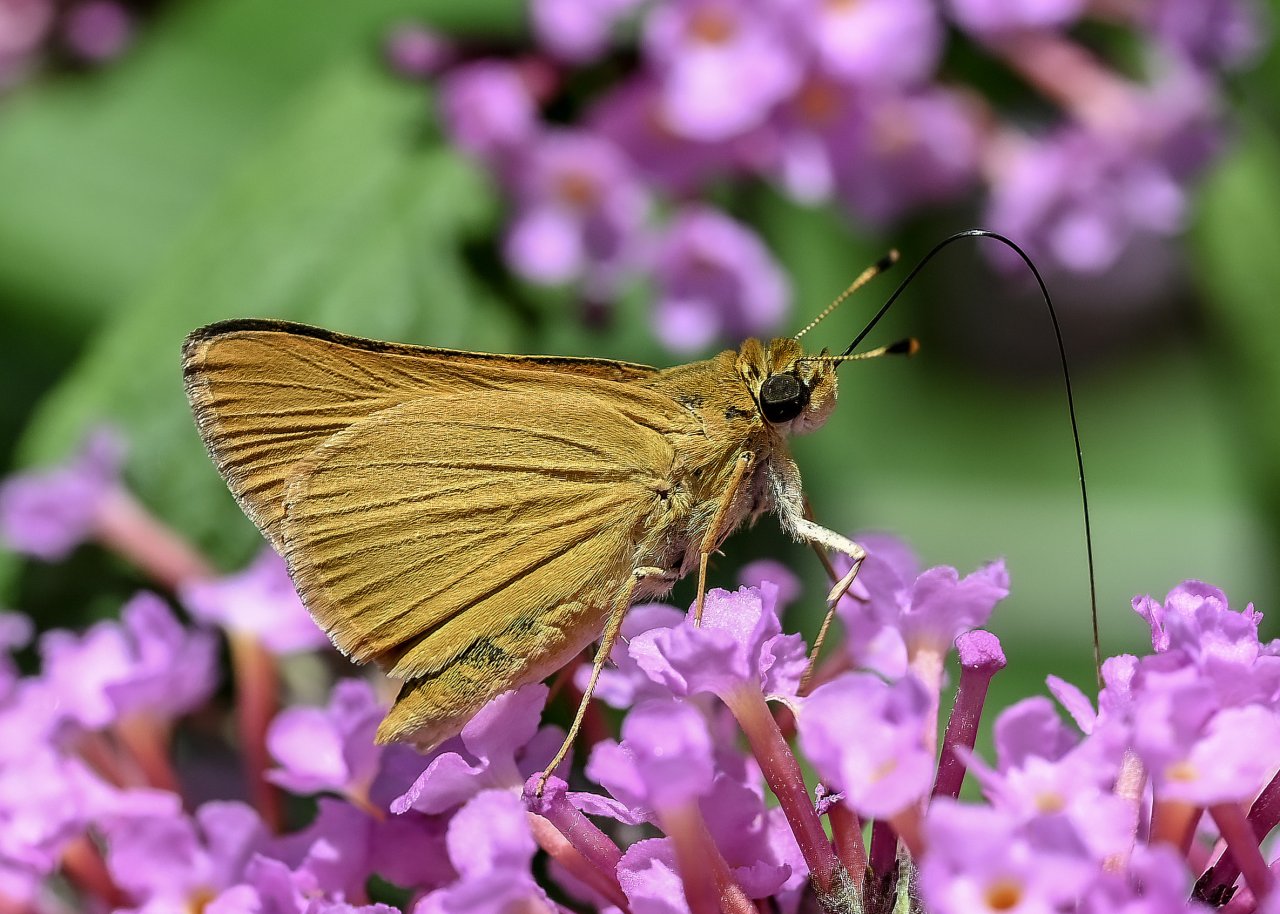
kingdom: Animalia
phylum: Arthropoda
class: Insecta
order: Lepidoptera
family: Hesperiidae
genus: Atrytone
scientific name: Atrytone delaware
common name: Delaware Skipper
